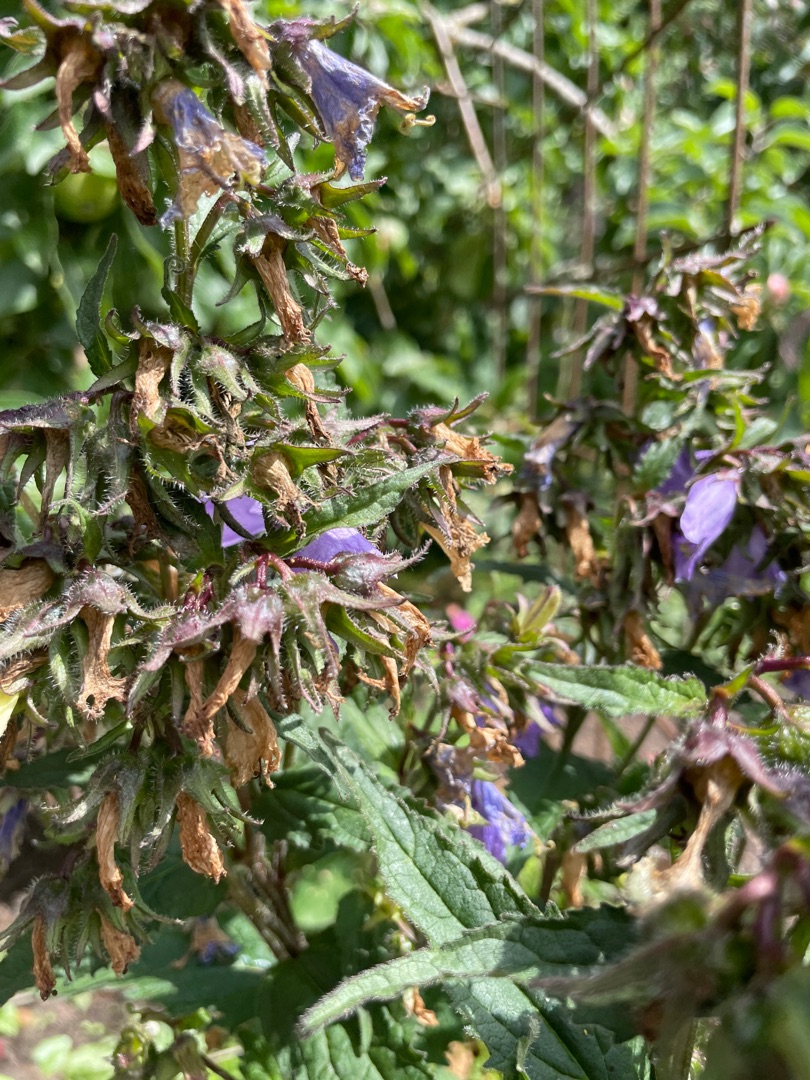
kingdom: Plantae
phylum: Tracheophyta
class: Magnoliopsida
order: Asterales
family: Campanulaceae
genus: Campanula
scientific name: Campanula trachelium
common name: Nælde-klokke
